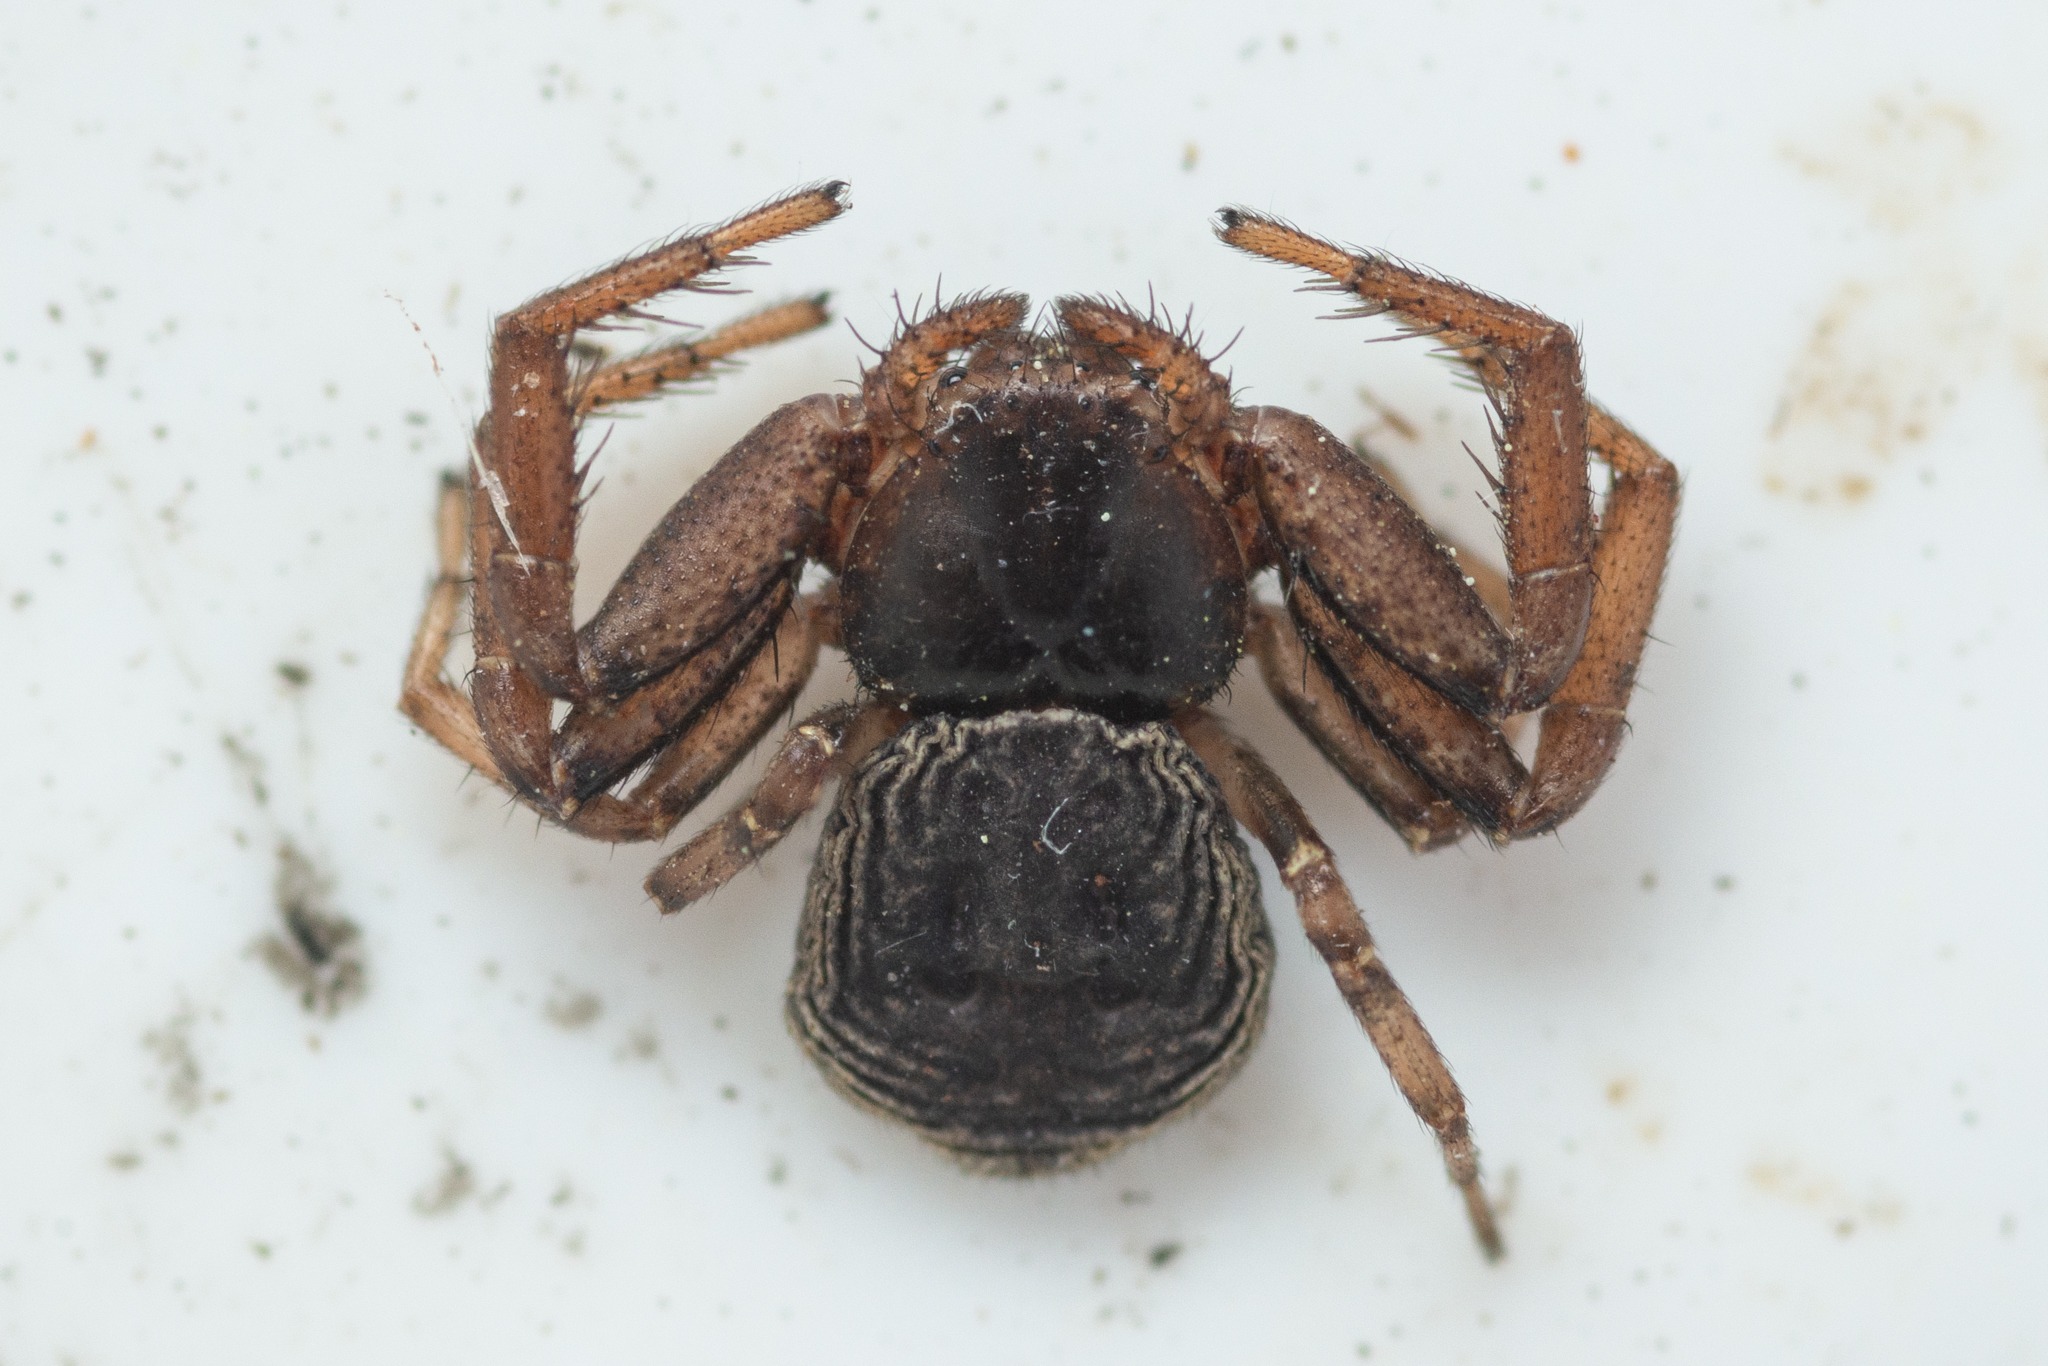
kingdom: Animalia
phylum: Arthropoda
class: Arachnida
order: Araneae
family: Thomisidae
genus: Coriarachne
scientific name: Coriarachne depressa
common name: Flad krabbeedderkop
